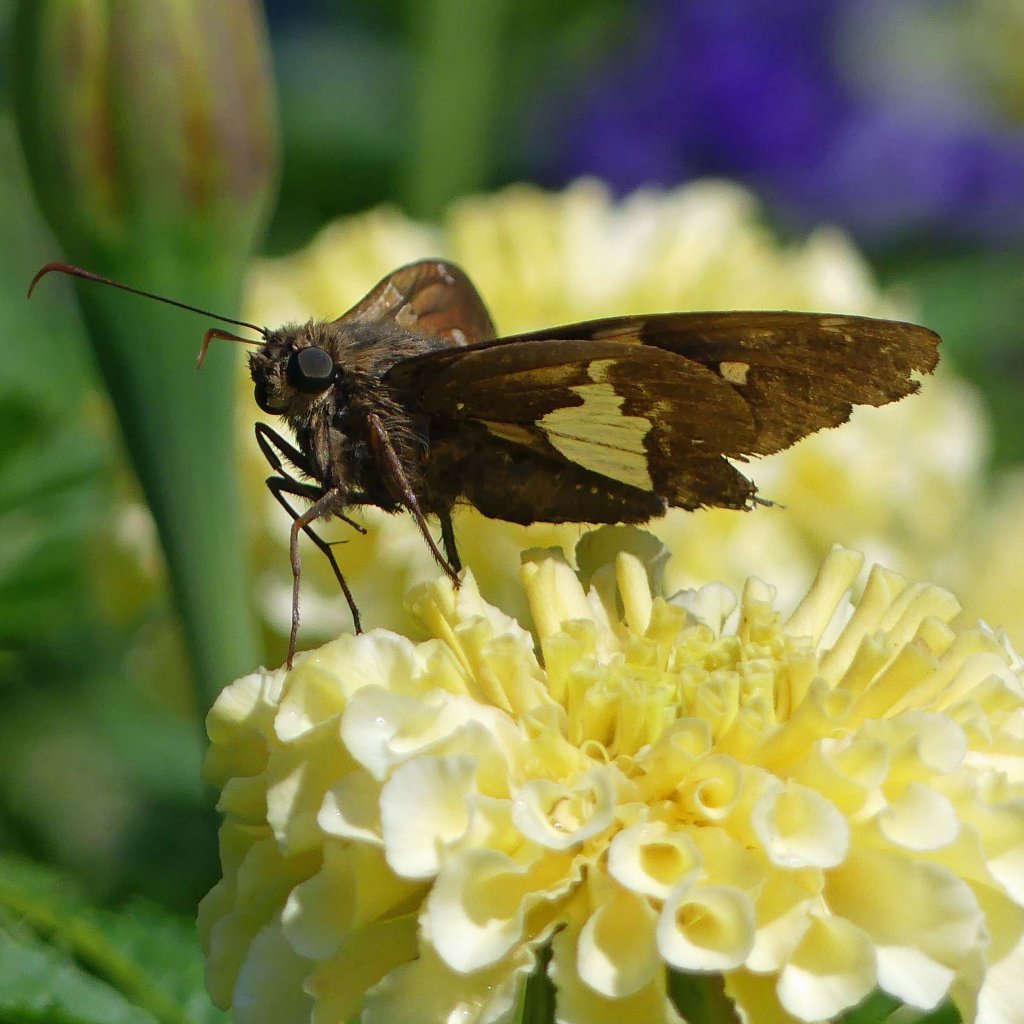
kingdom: Animalia
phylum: Arthropoda
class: Insecta
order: Lepidoptera
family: Hesperiidae
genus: Epargyreus
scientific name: Epargyreus clarus
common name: Silver-spotted Skipper
